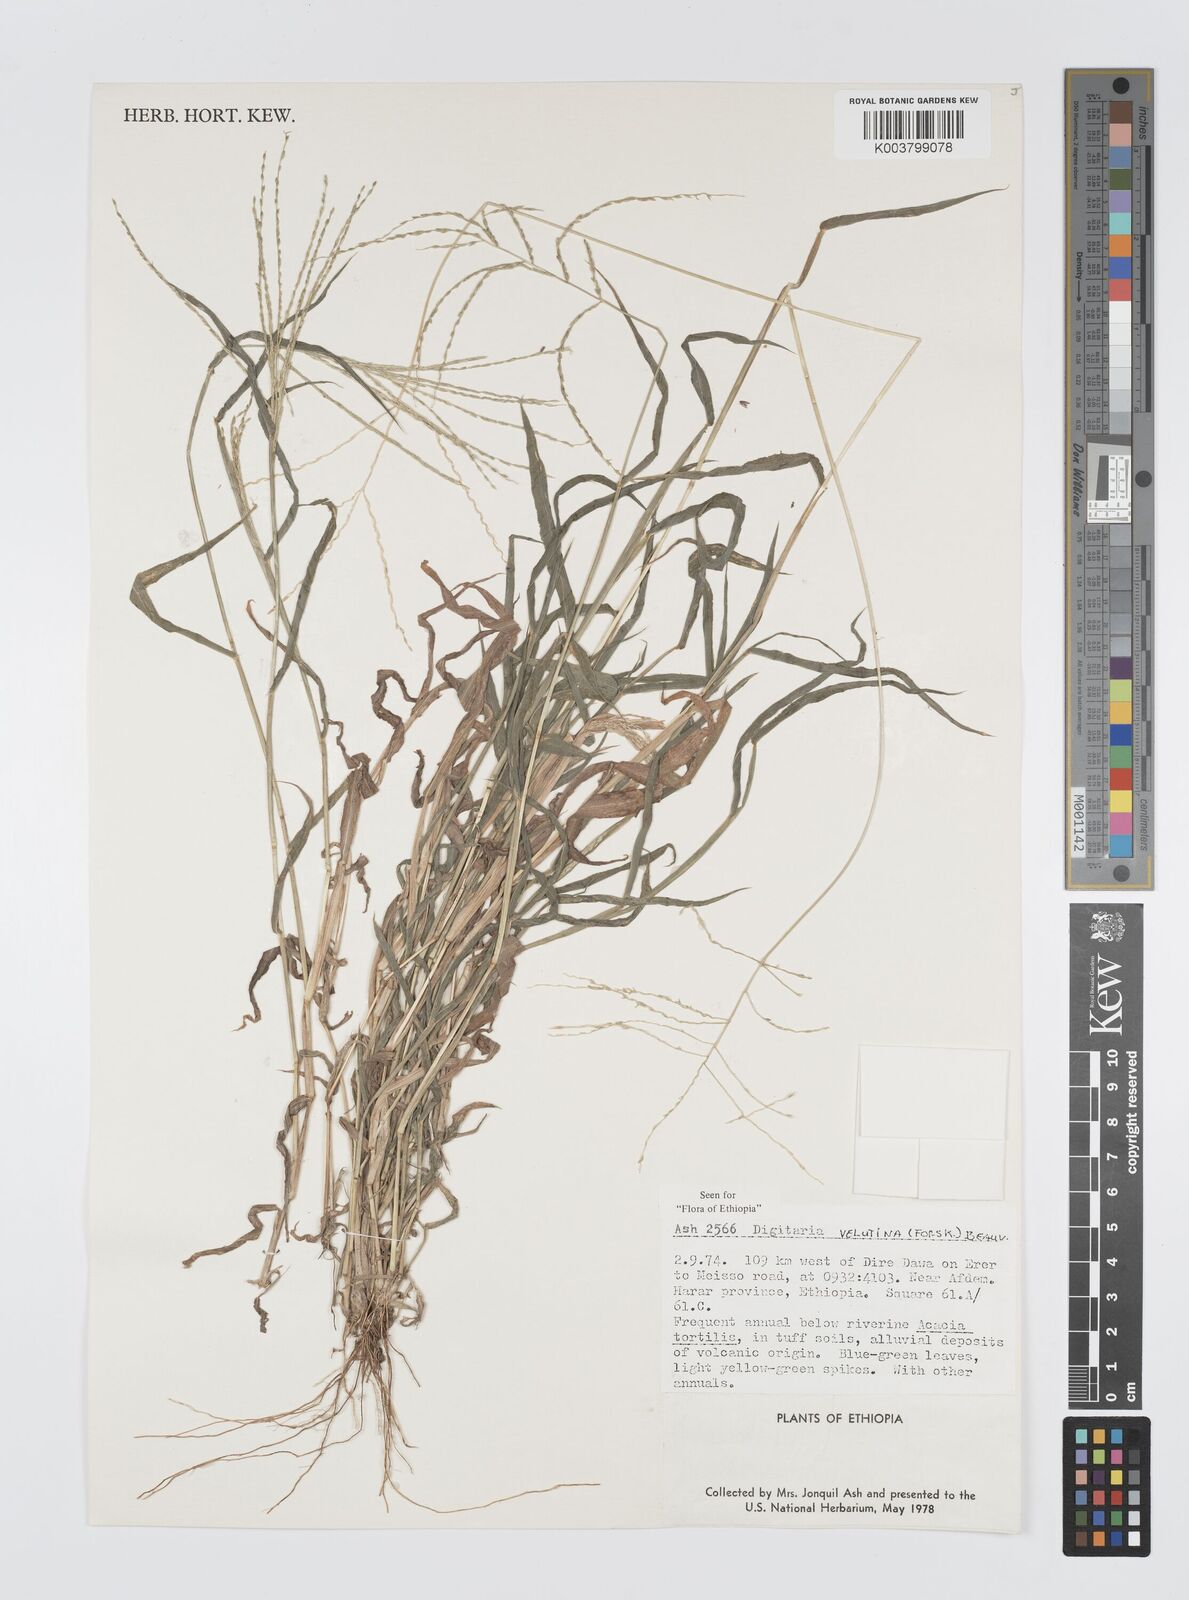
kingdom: Plantae
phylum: Tracheophyta
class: Liliopsida
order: Poales
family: Poaceae
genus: Digitaria
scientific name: Digitaria velutina
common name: Long-plume finger grass
